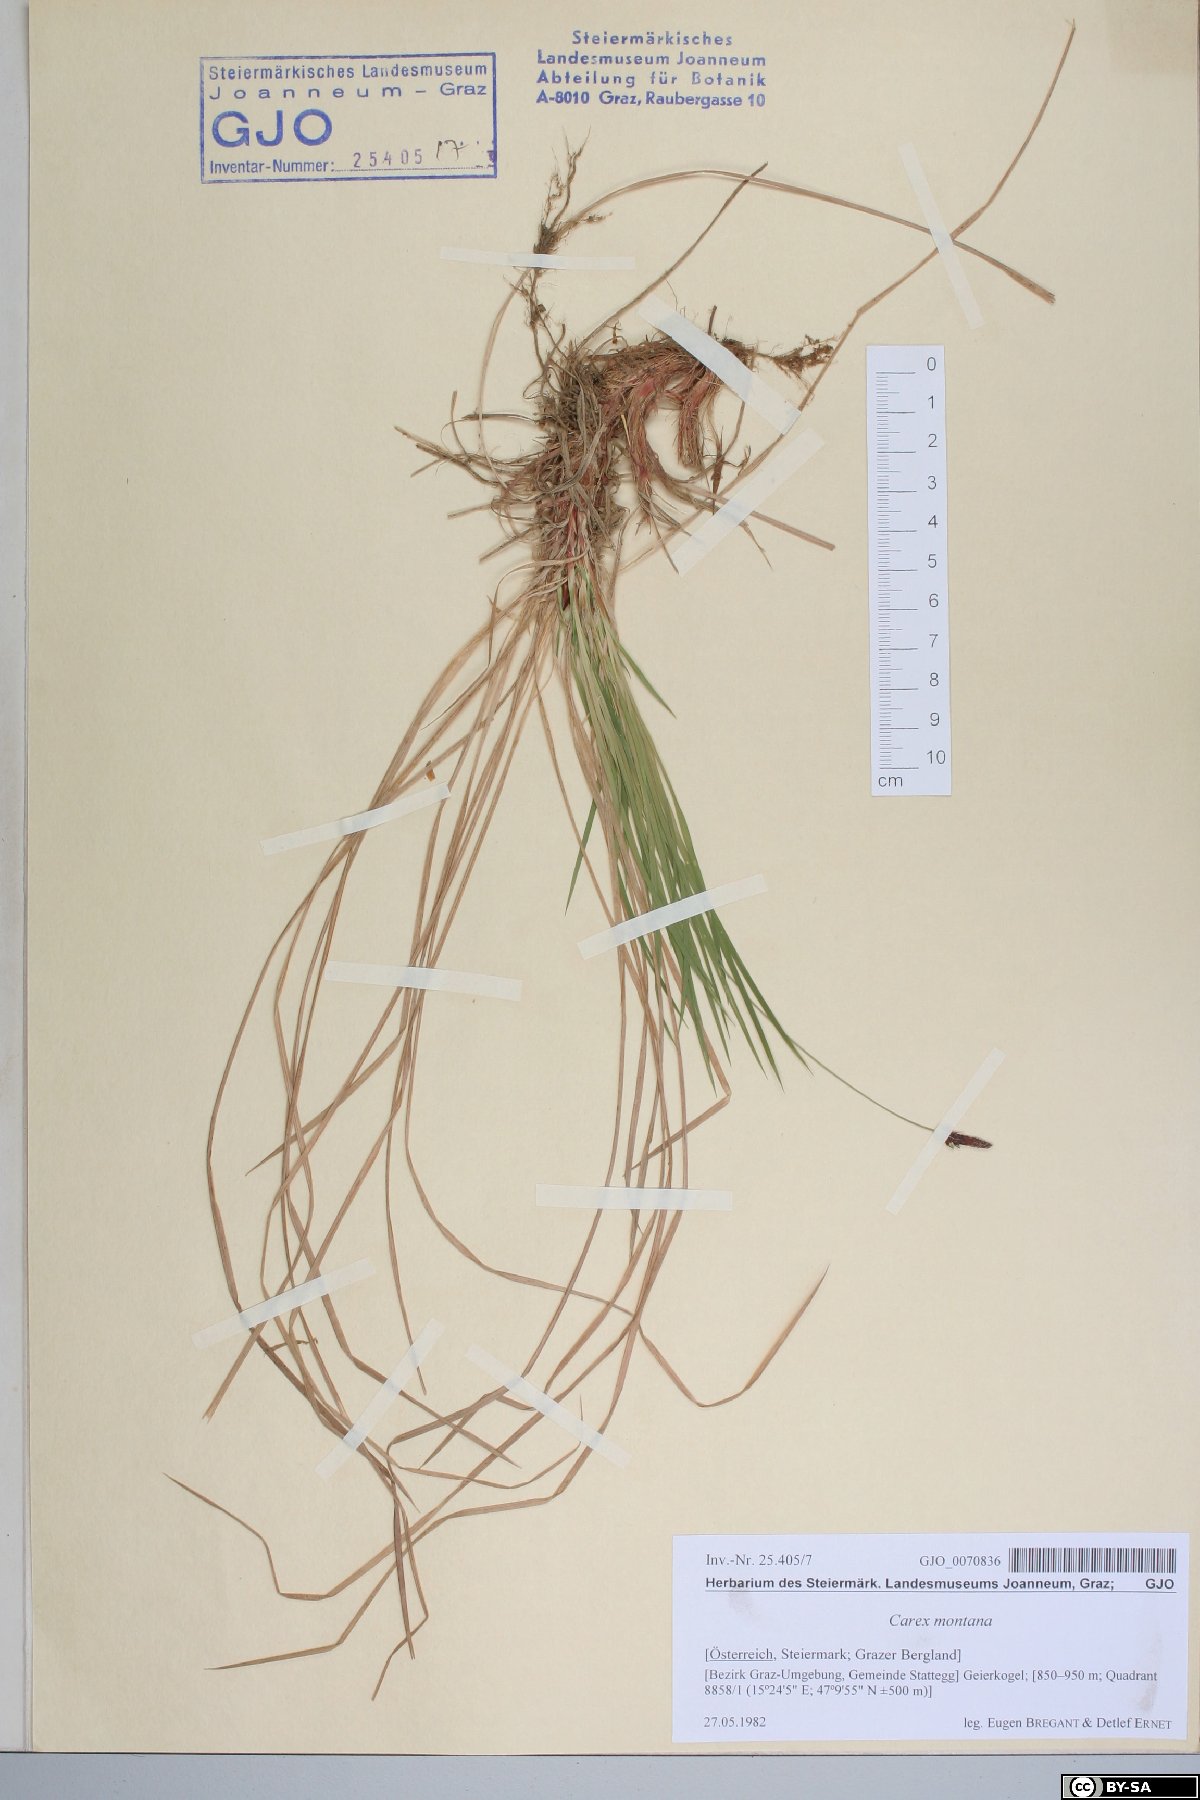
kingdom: Plantae
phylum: Tracheophyta
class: Liliopsida
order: Poales
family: Cyperaceae
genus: Carex
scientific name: Carex montana
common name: Soft-leaved sedge
